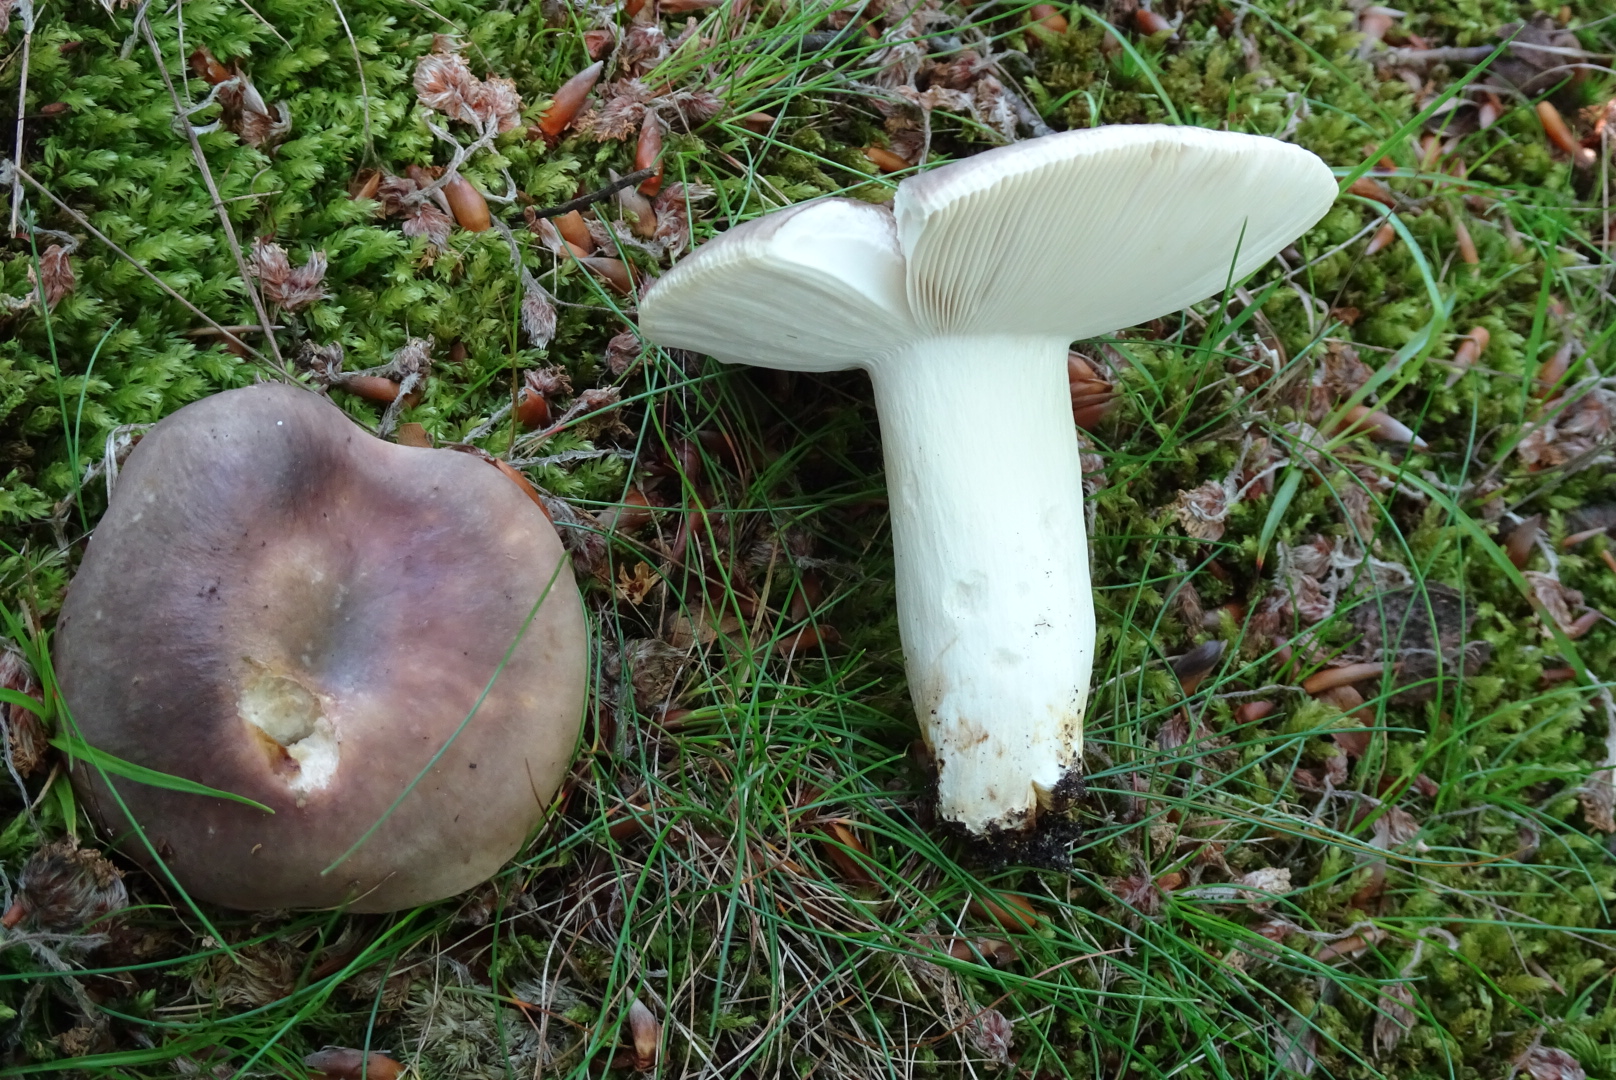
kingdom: Fungi
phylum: Basidiomycota
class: Agaricomycetes
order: Russulales
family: Russulaceae
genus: Russula
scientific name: Russula cyanoxantha
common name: broget skørhat
